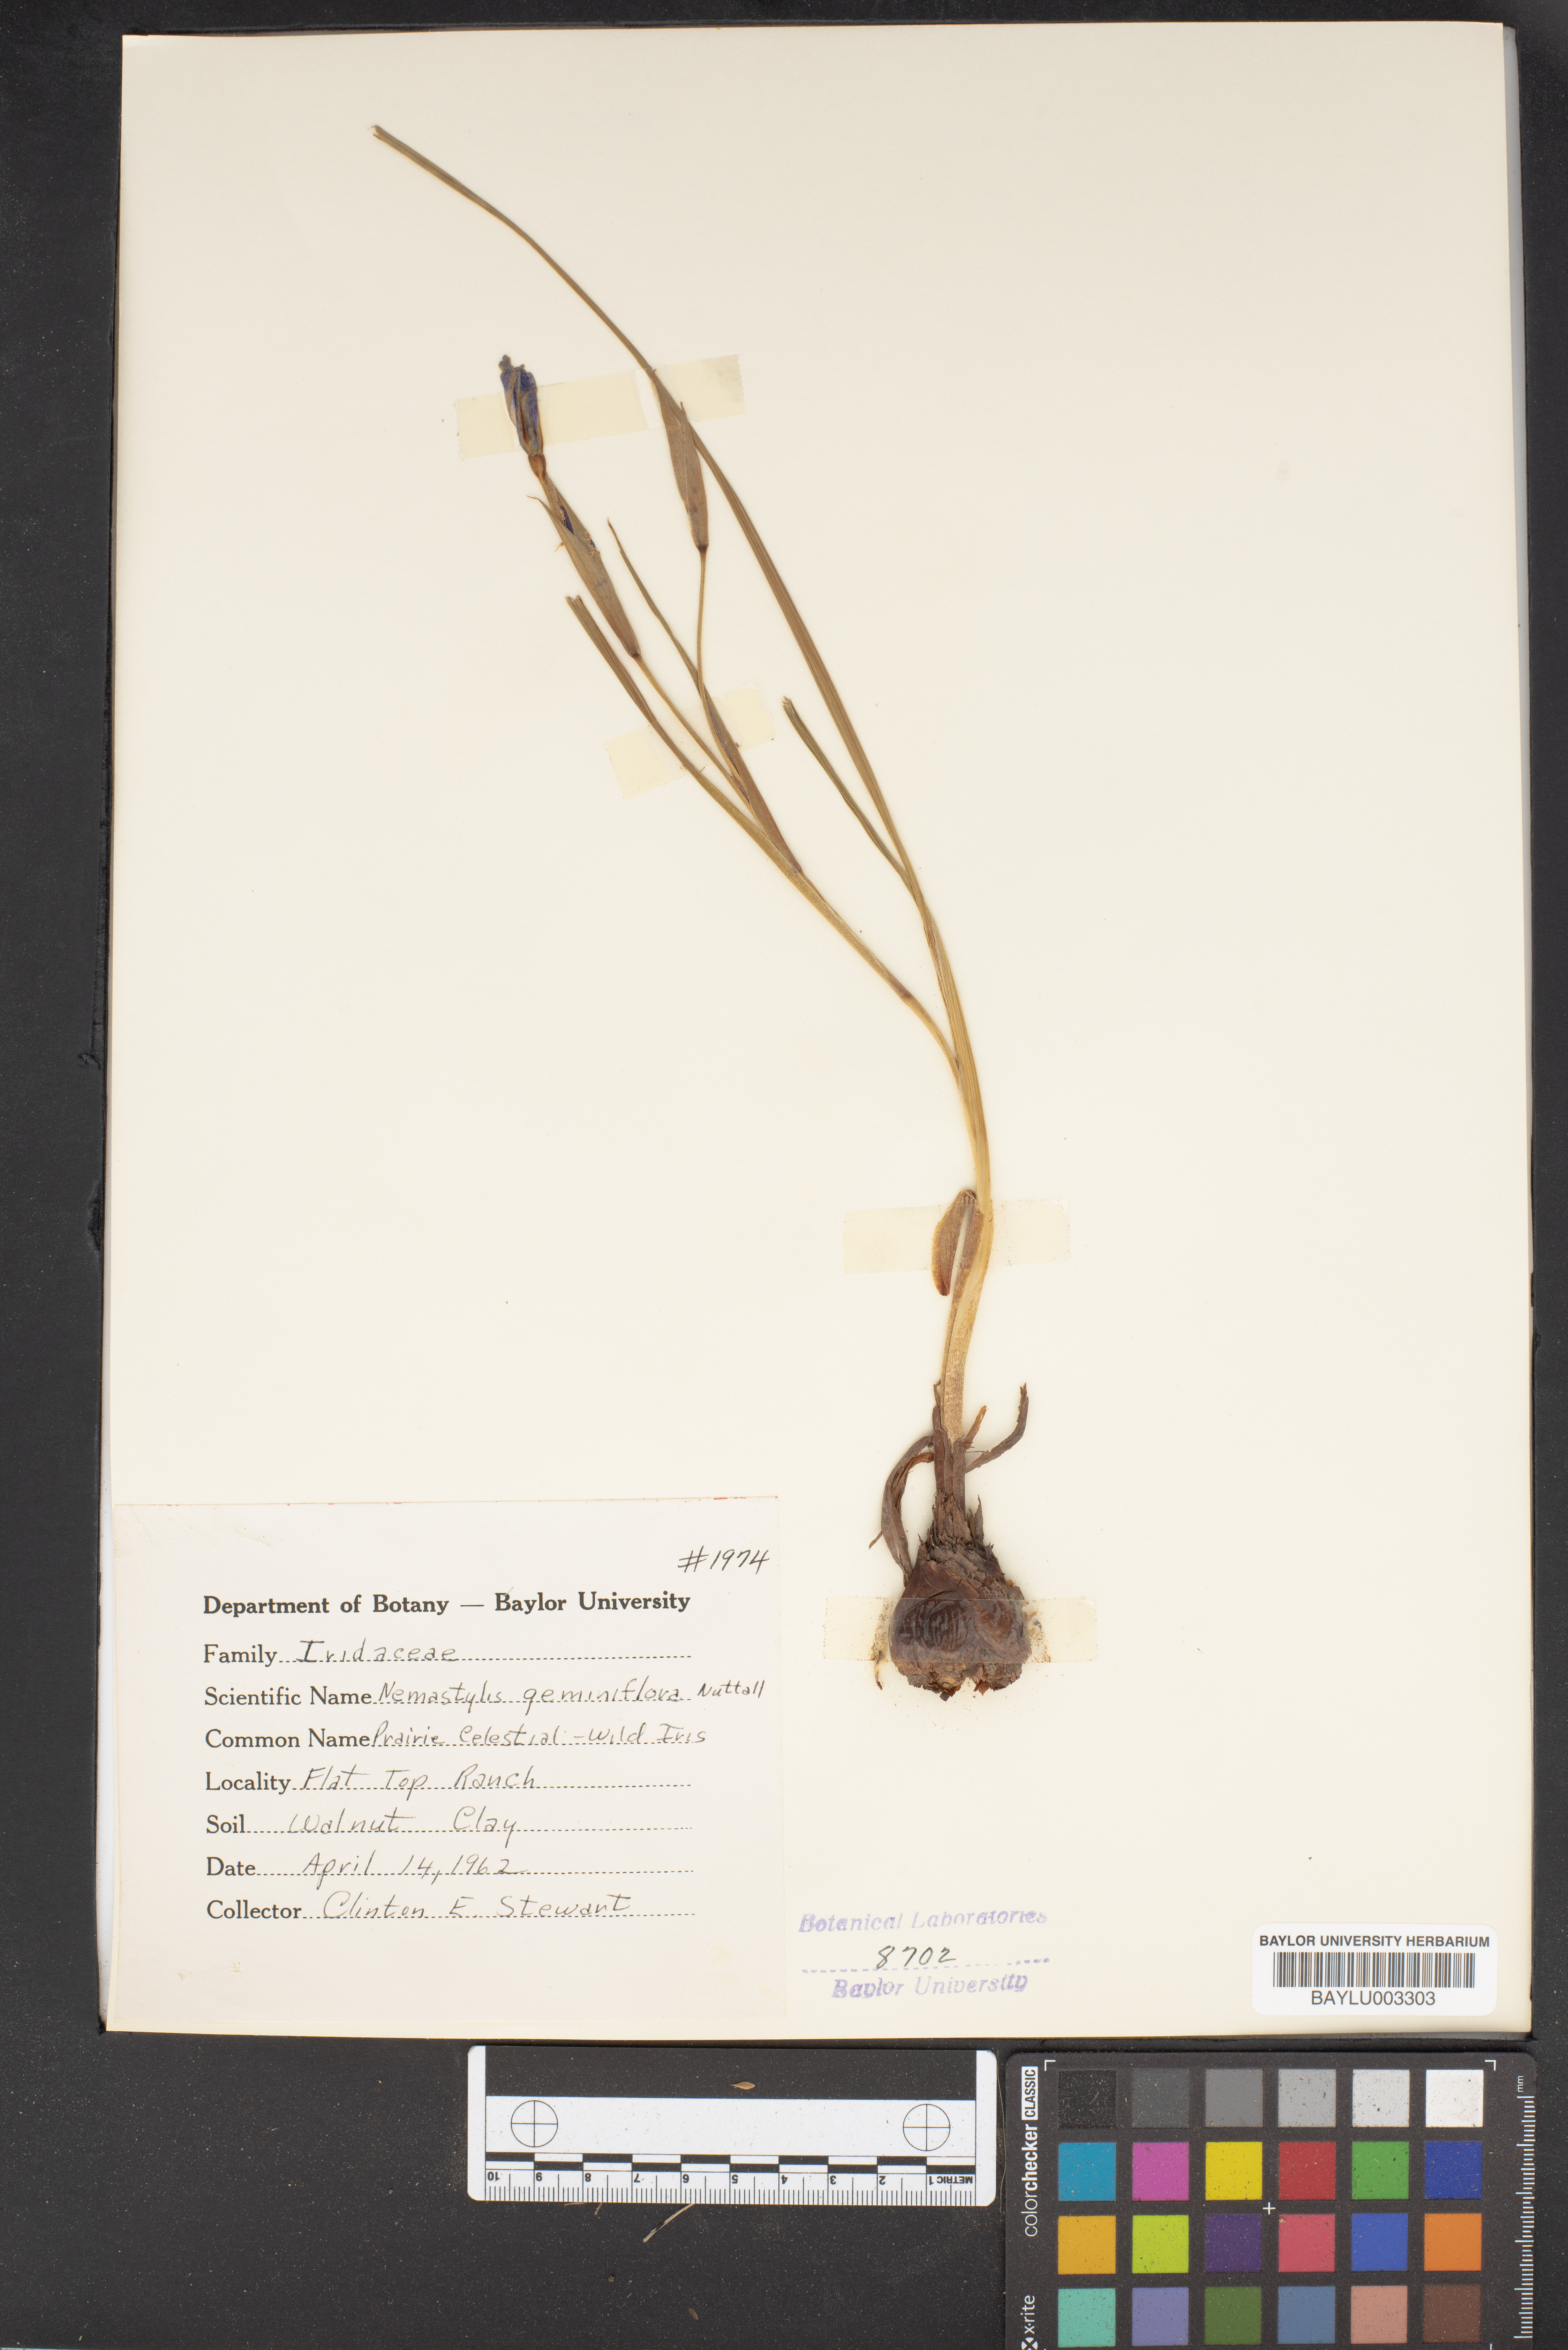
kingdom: Plantae
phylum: Tracheophyta
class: Liliopsida
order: Asparagales
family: Iridaceae
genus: Nemastylis
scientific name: Nemastylis geminiflora
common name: Prairie celestial
